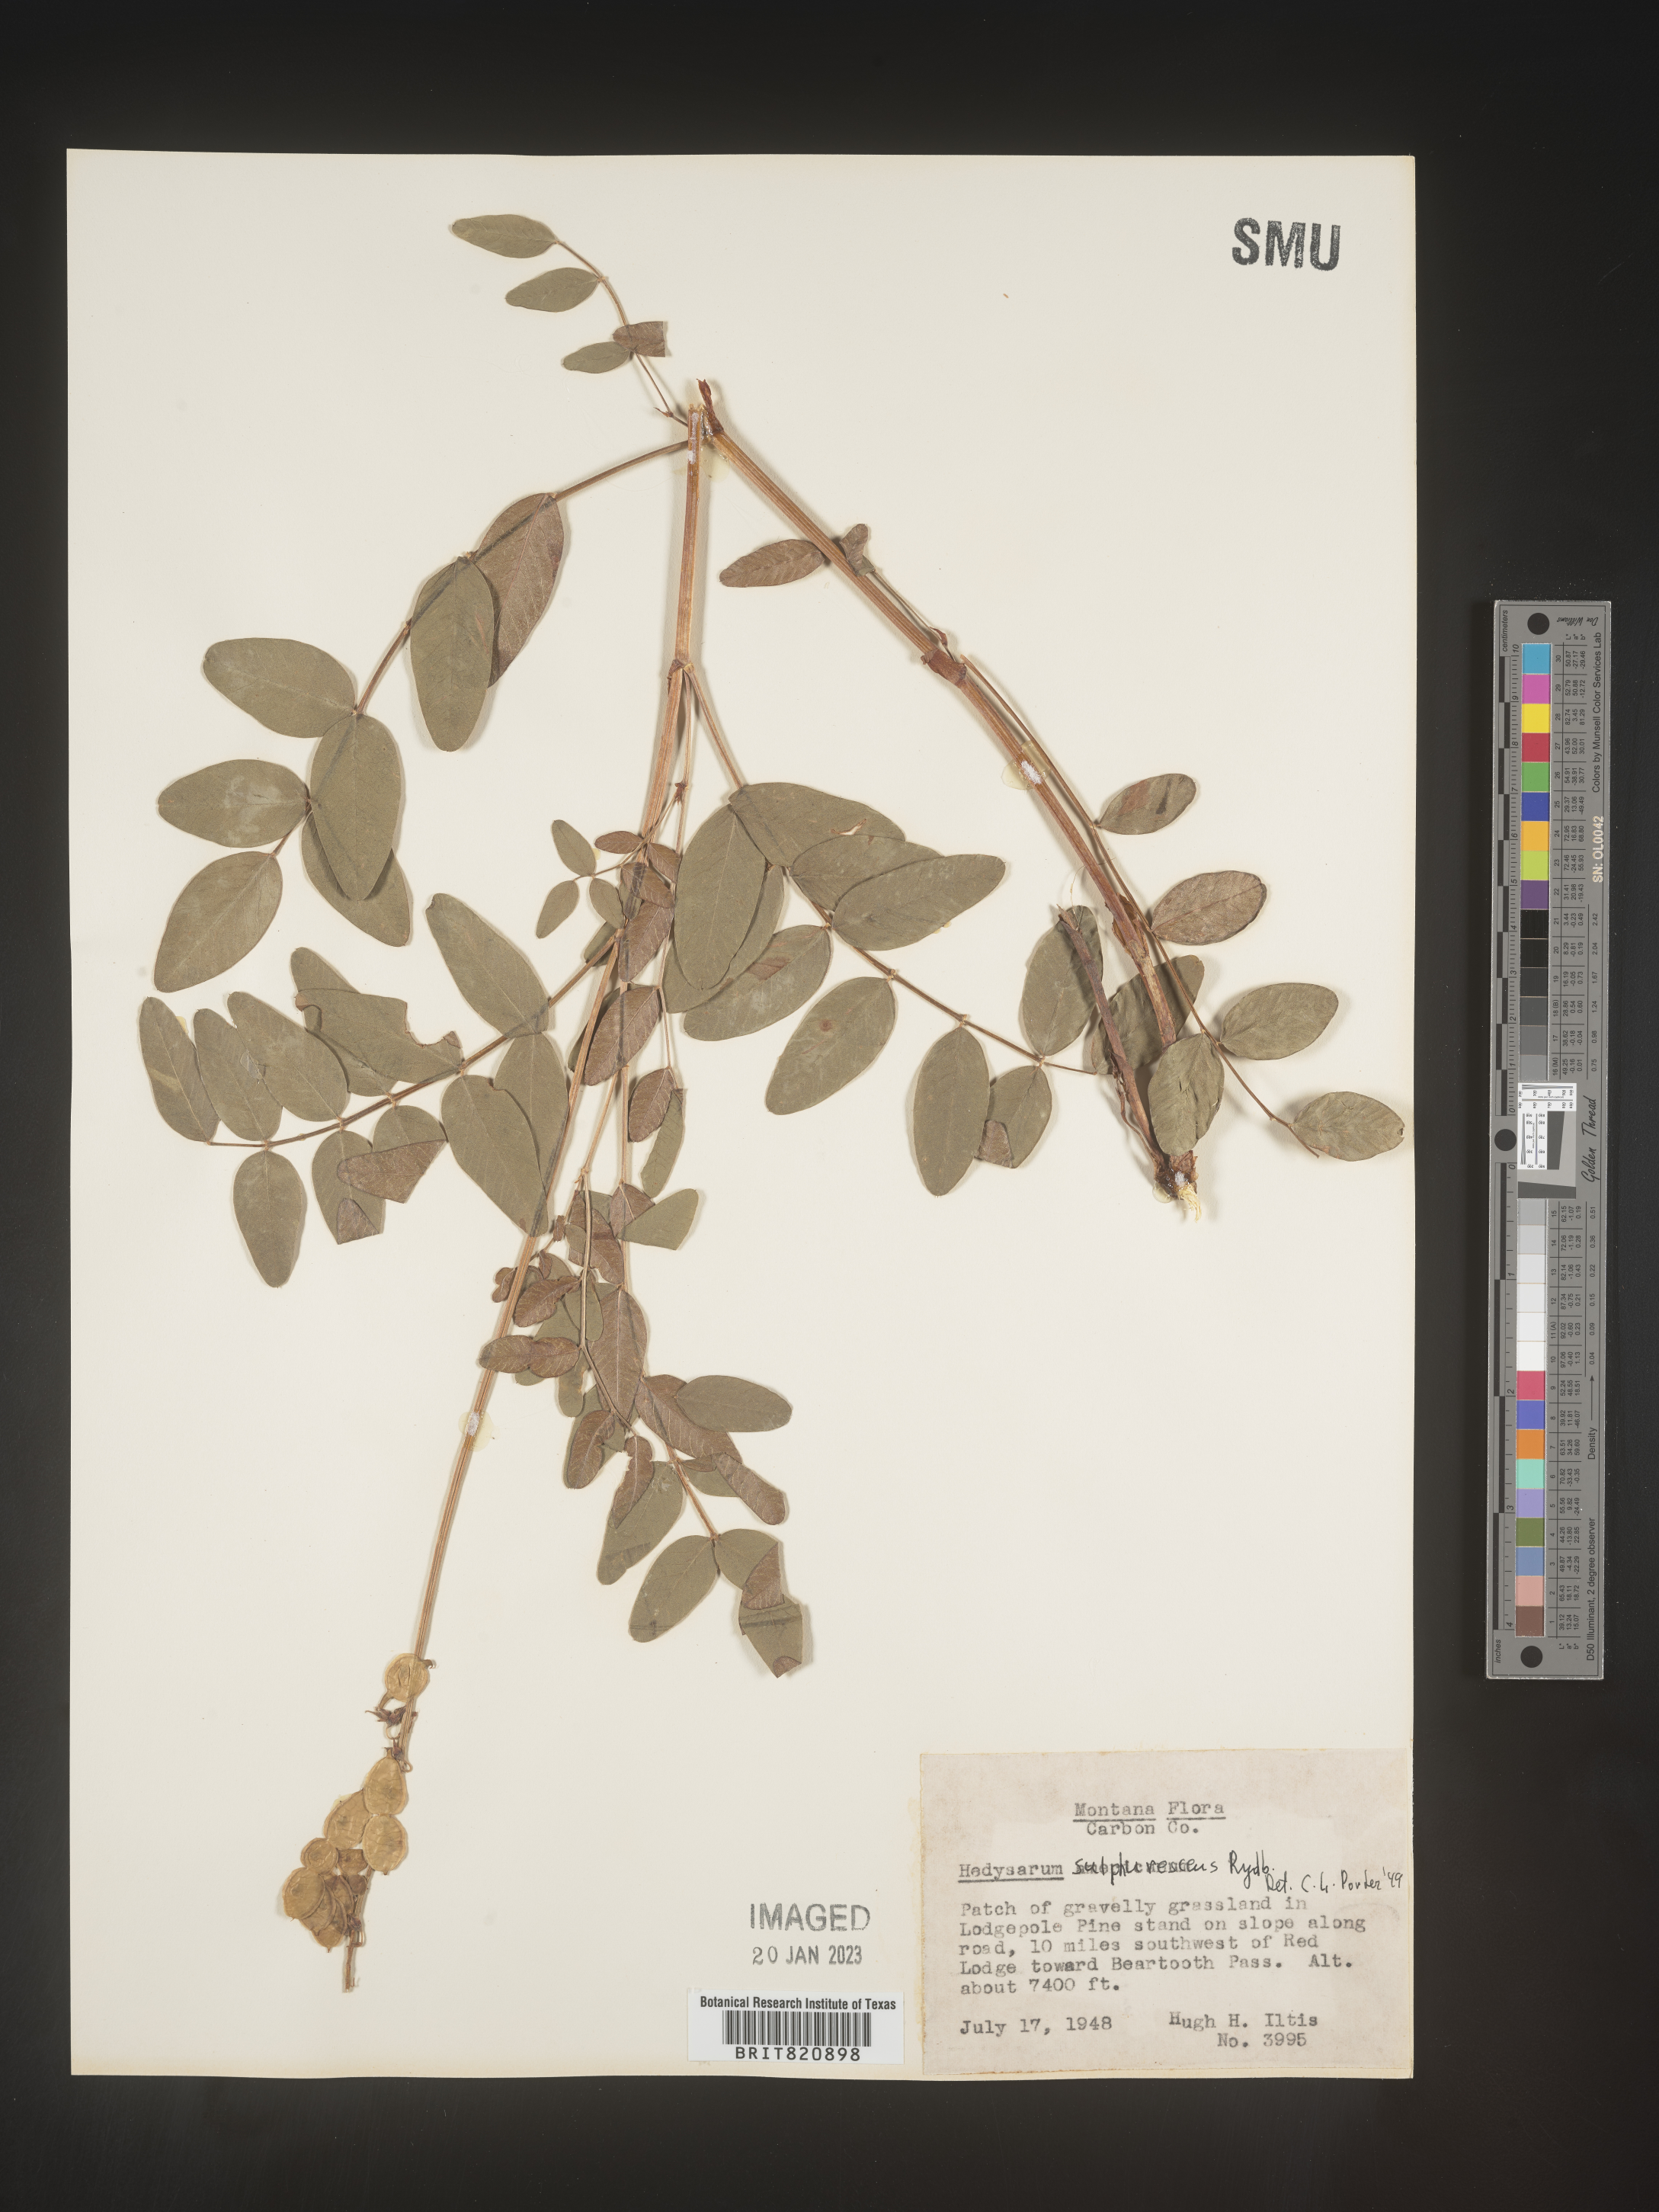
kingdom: Plantae
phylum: Tracheophyta
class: Magnoliopsida
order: Fabales
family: Fabaceae
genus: Hedysarum
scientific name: Hedysarum sulphurescens
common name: Sulphur hedysarum
